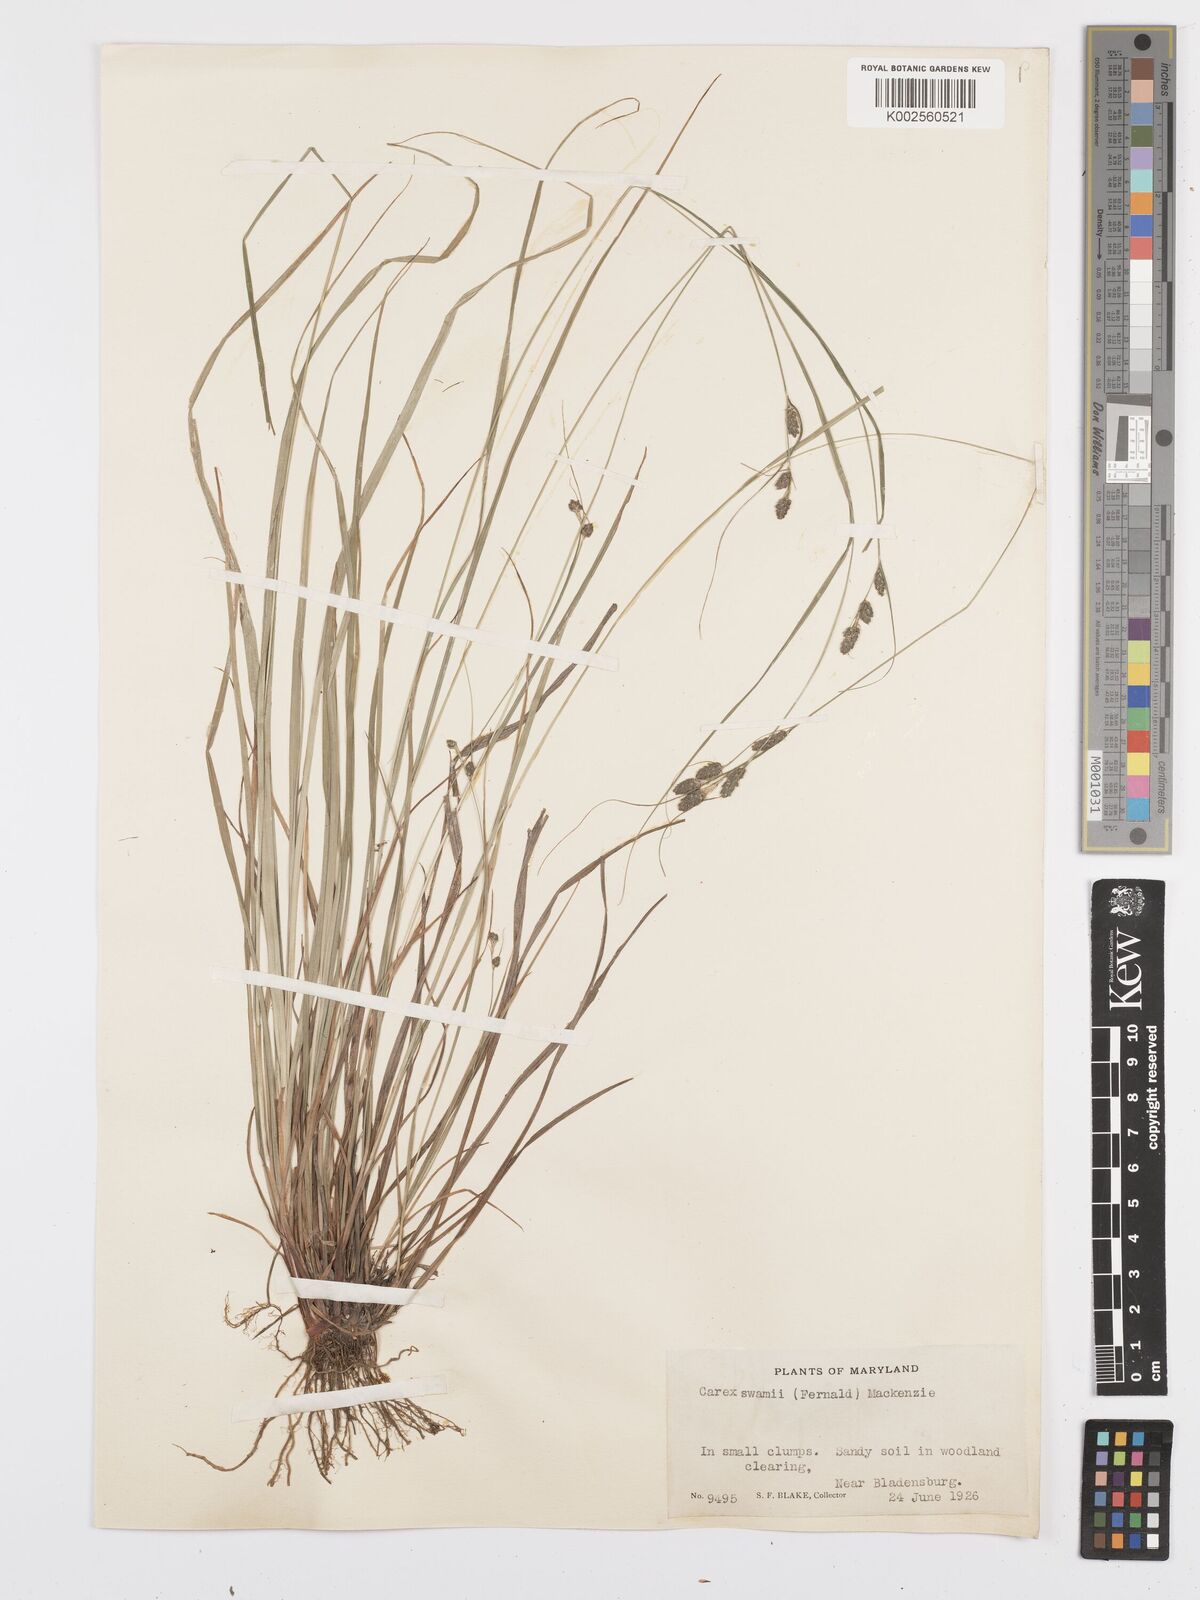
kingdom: Plantae
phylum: Tracheophyta
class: Liliopsida
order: Poales
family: Cyperaceae
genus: Carex
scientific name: Carex swanii
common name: Downy green sedge
